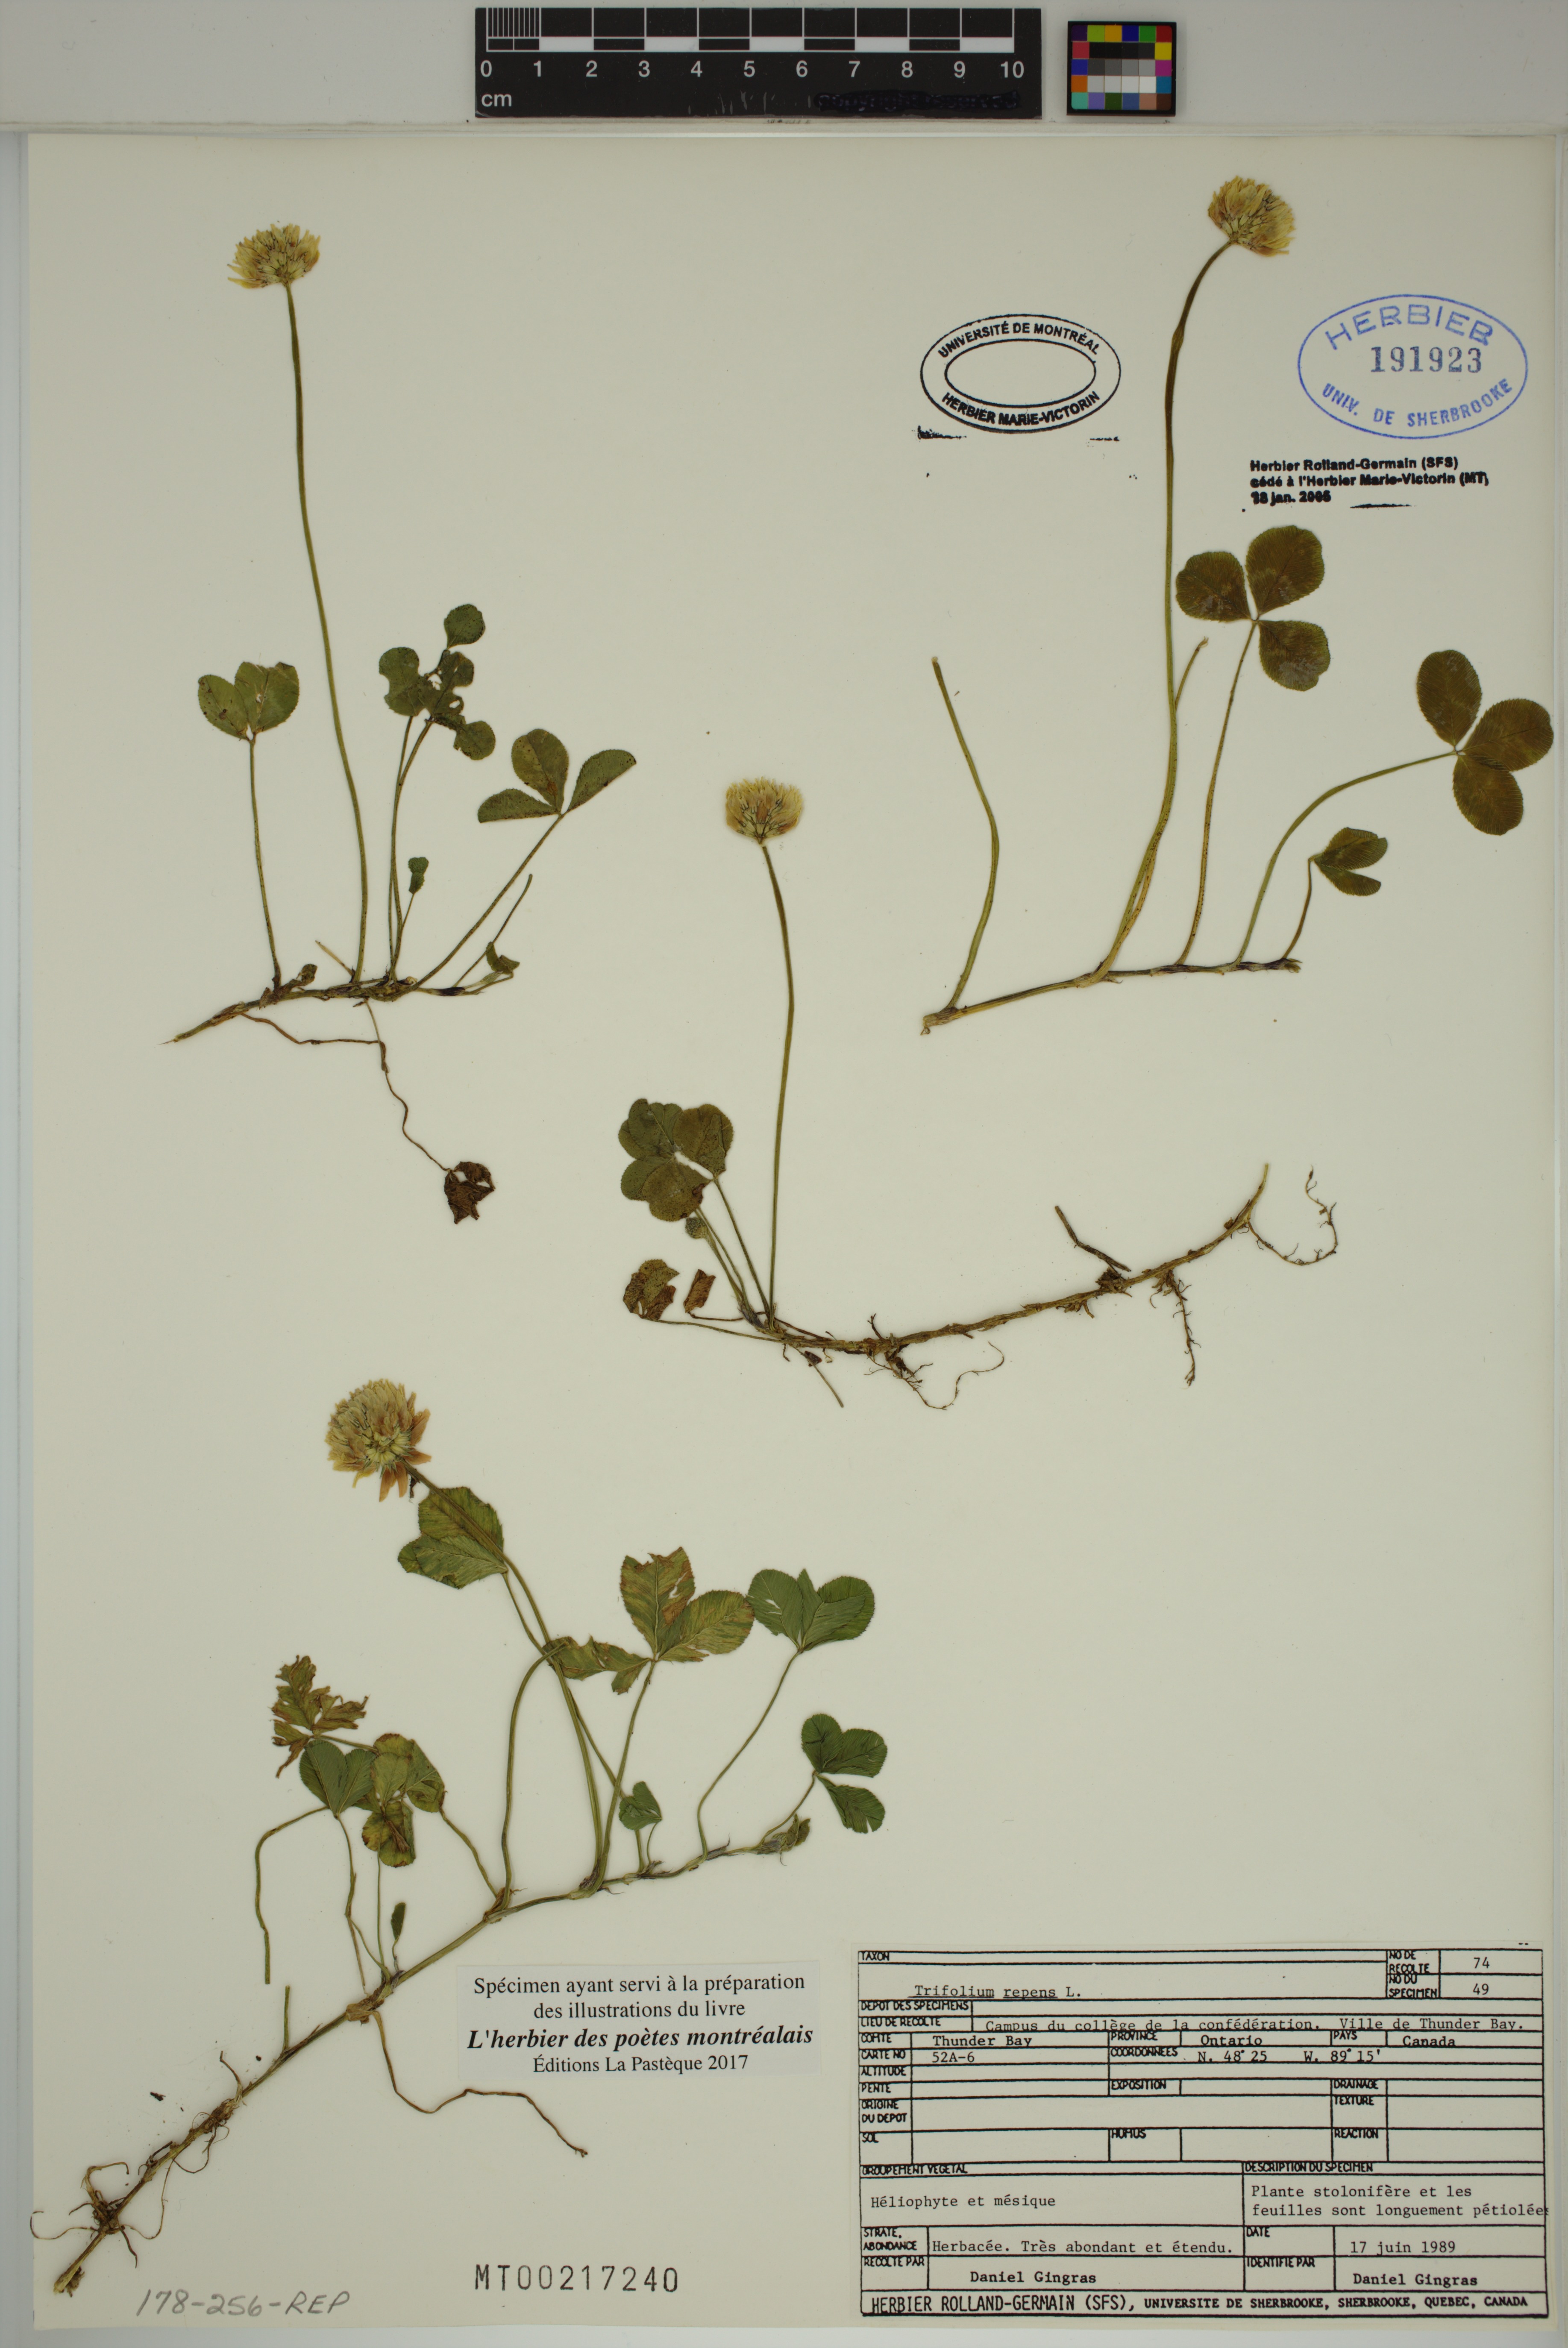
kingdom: Plantae
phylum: Tracheophyta
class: Magnoliopsida
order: Fabales
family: Fabaceae
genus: Trifolium
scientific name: Trifolium repens
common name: White clover
